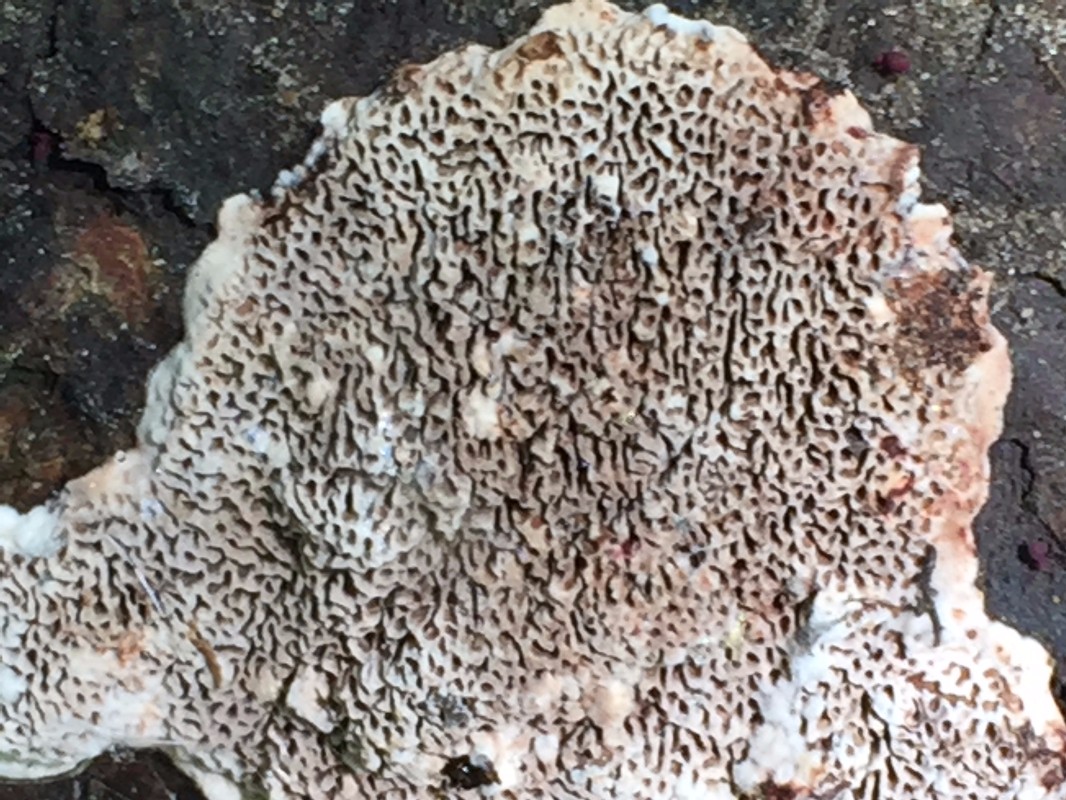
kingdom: Fungi
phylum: Basidiomycota
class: Agaricomycetes
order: Polyporales
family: Polyporaceae
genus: Podofomes
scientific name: Podofomes mollis
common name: blød begporesvamp
